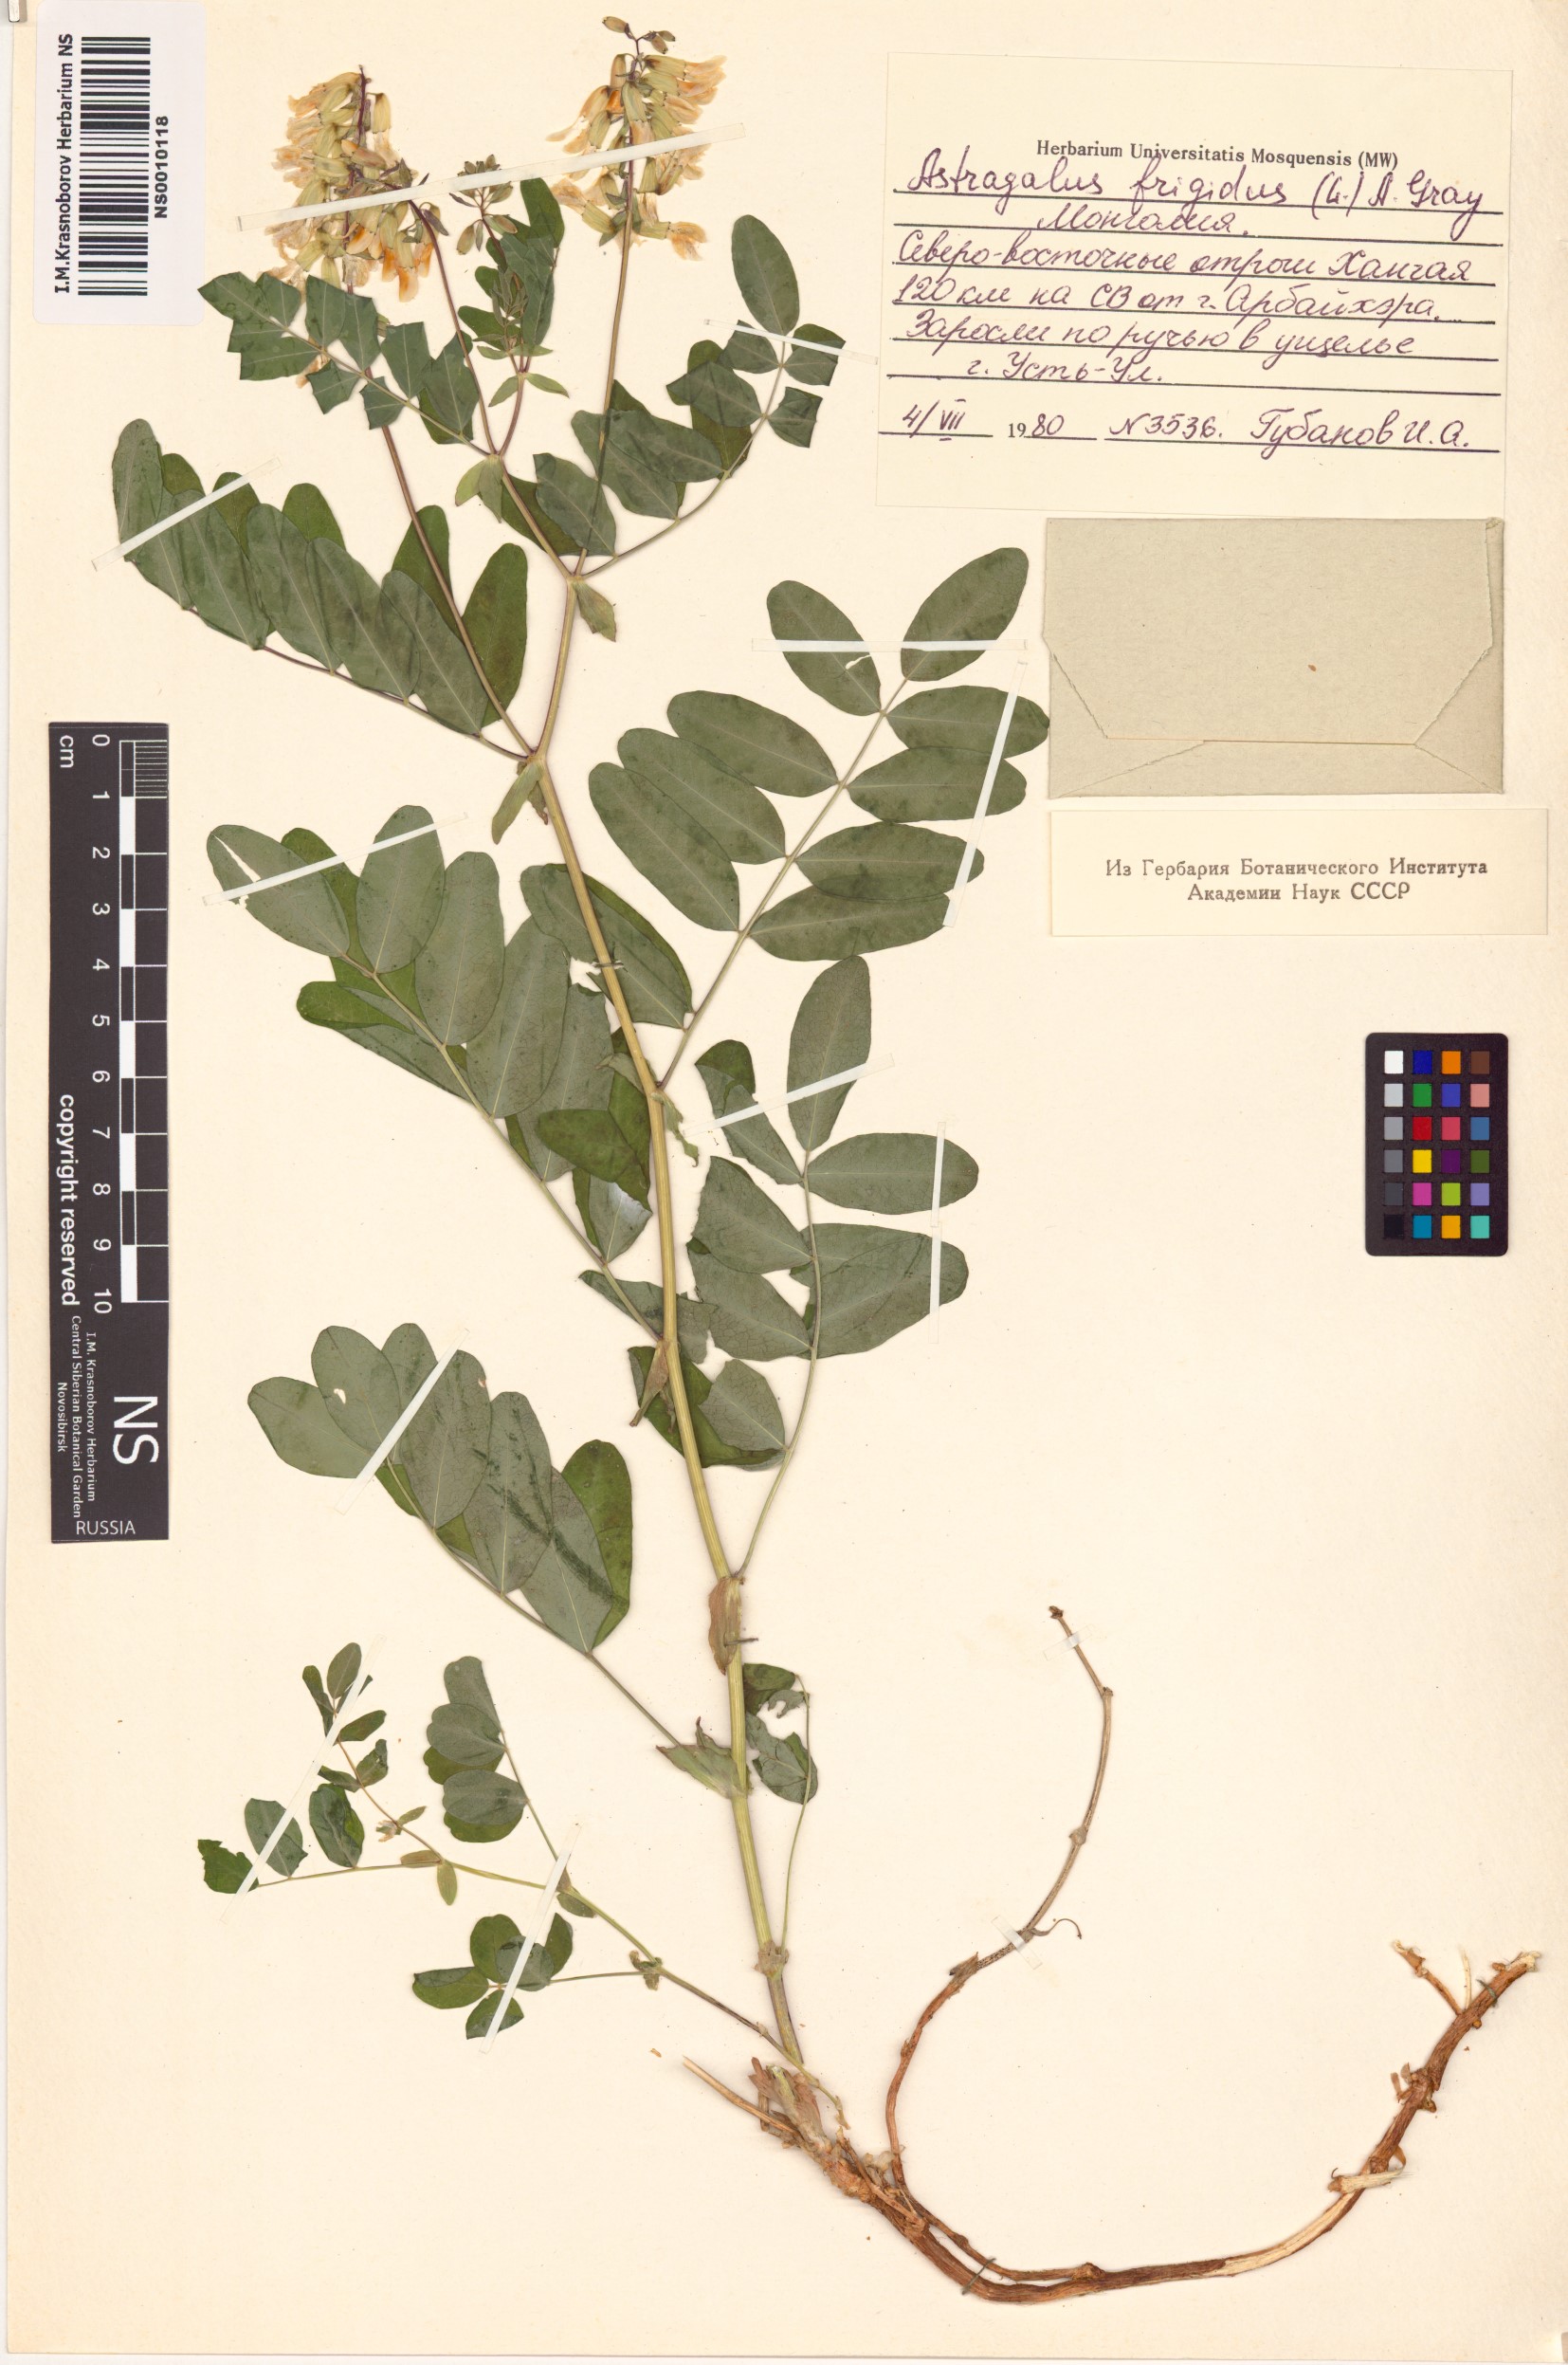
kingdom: Plantae
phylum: Tracheophyta
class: Magnoliopsida
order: Fabales
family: Fabaceae
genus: Astragalus
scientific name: Astragalus frigidus
